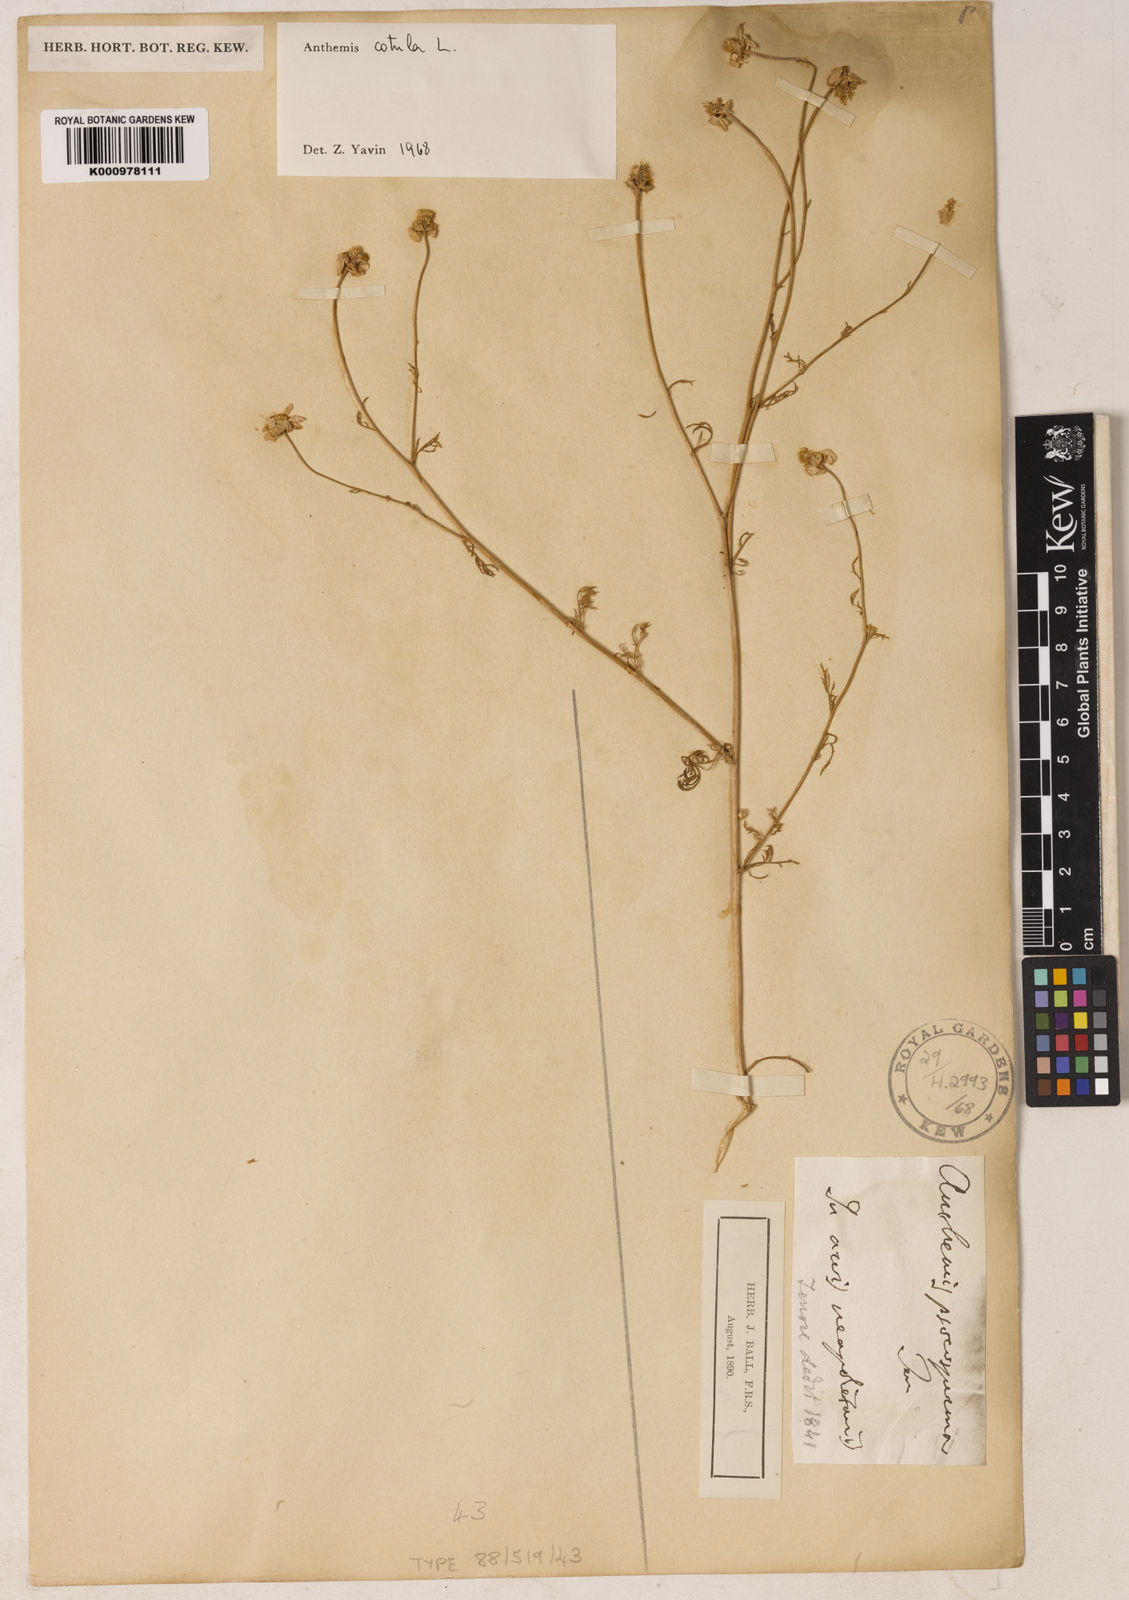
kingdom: Plantae
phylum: Tracheophyta
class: Magnoliopsida
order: Asterales
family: Asteraceae
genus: Anthemis
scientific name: Anthemis cotula
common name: Stinking chamomile
